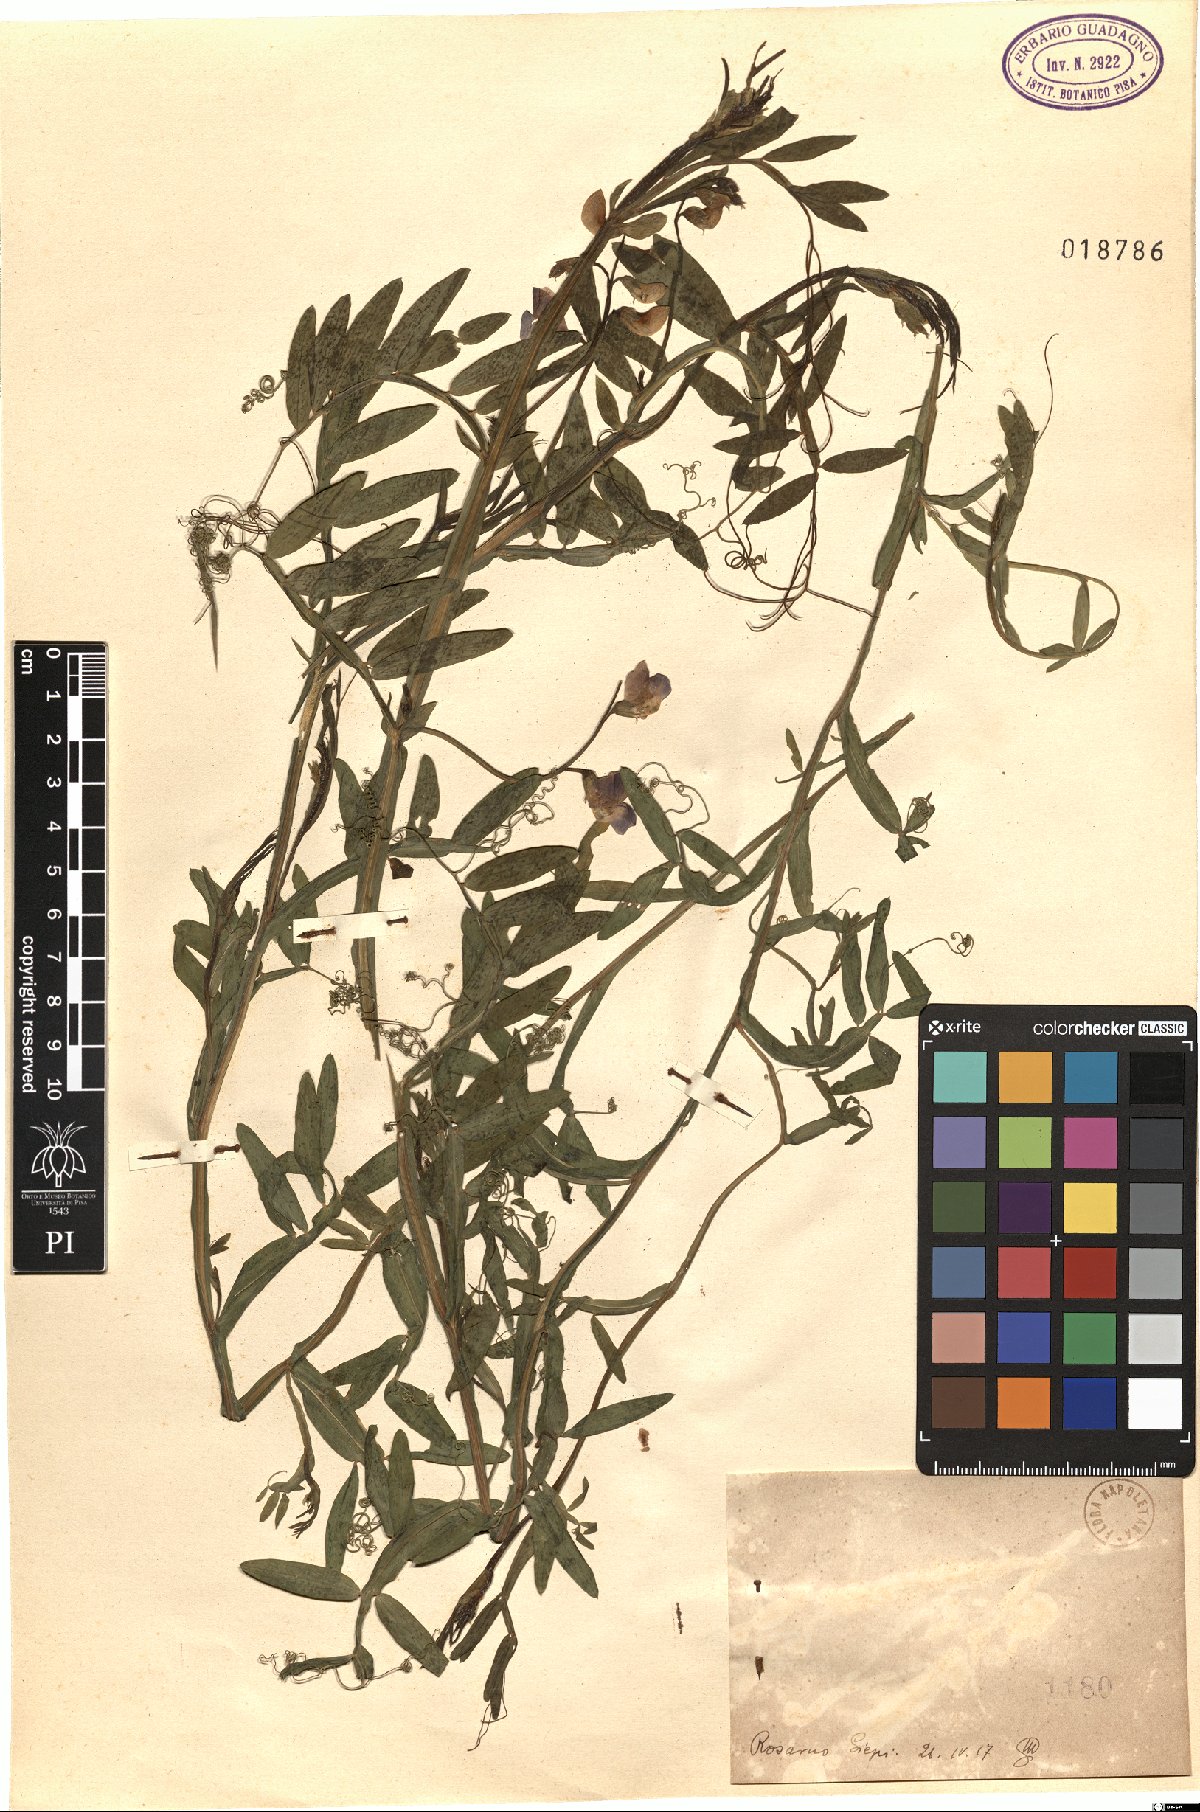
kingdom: Plantae
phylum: Tracheophyta
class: Magnoliopsida
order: Fabales
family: Fabaceae
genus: Lathyrus
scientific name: Lathyrus
